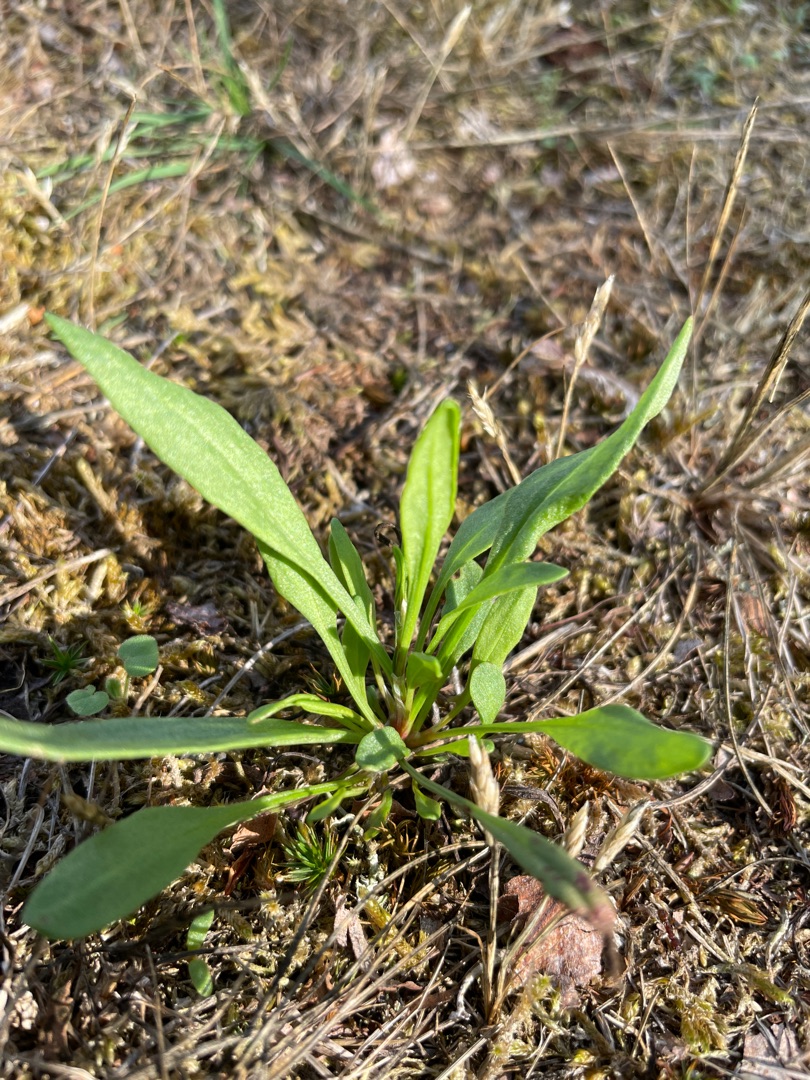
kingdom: Plantae
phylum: Tracheophyta
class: Magnoliopsida
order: Caryophyllales
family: Polygonaceae
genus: Rumex
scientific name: Rumex acetosella
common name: Rødknæ
